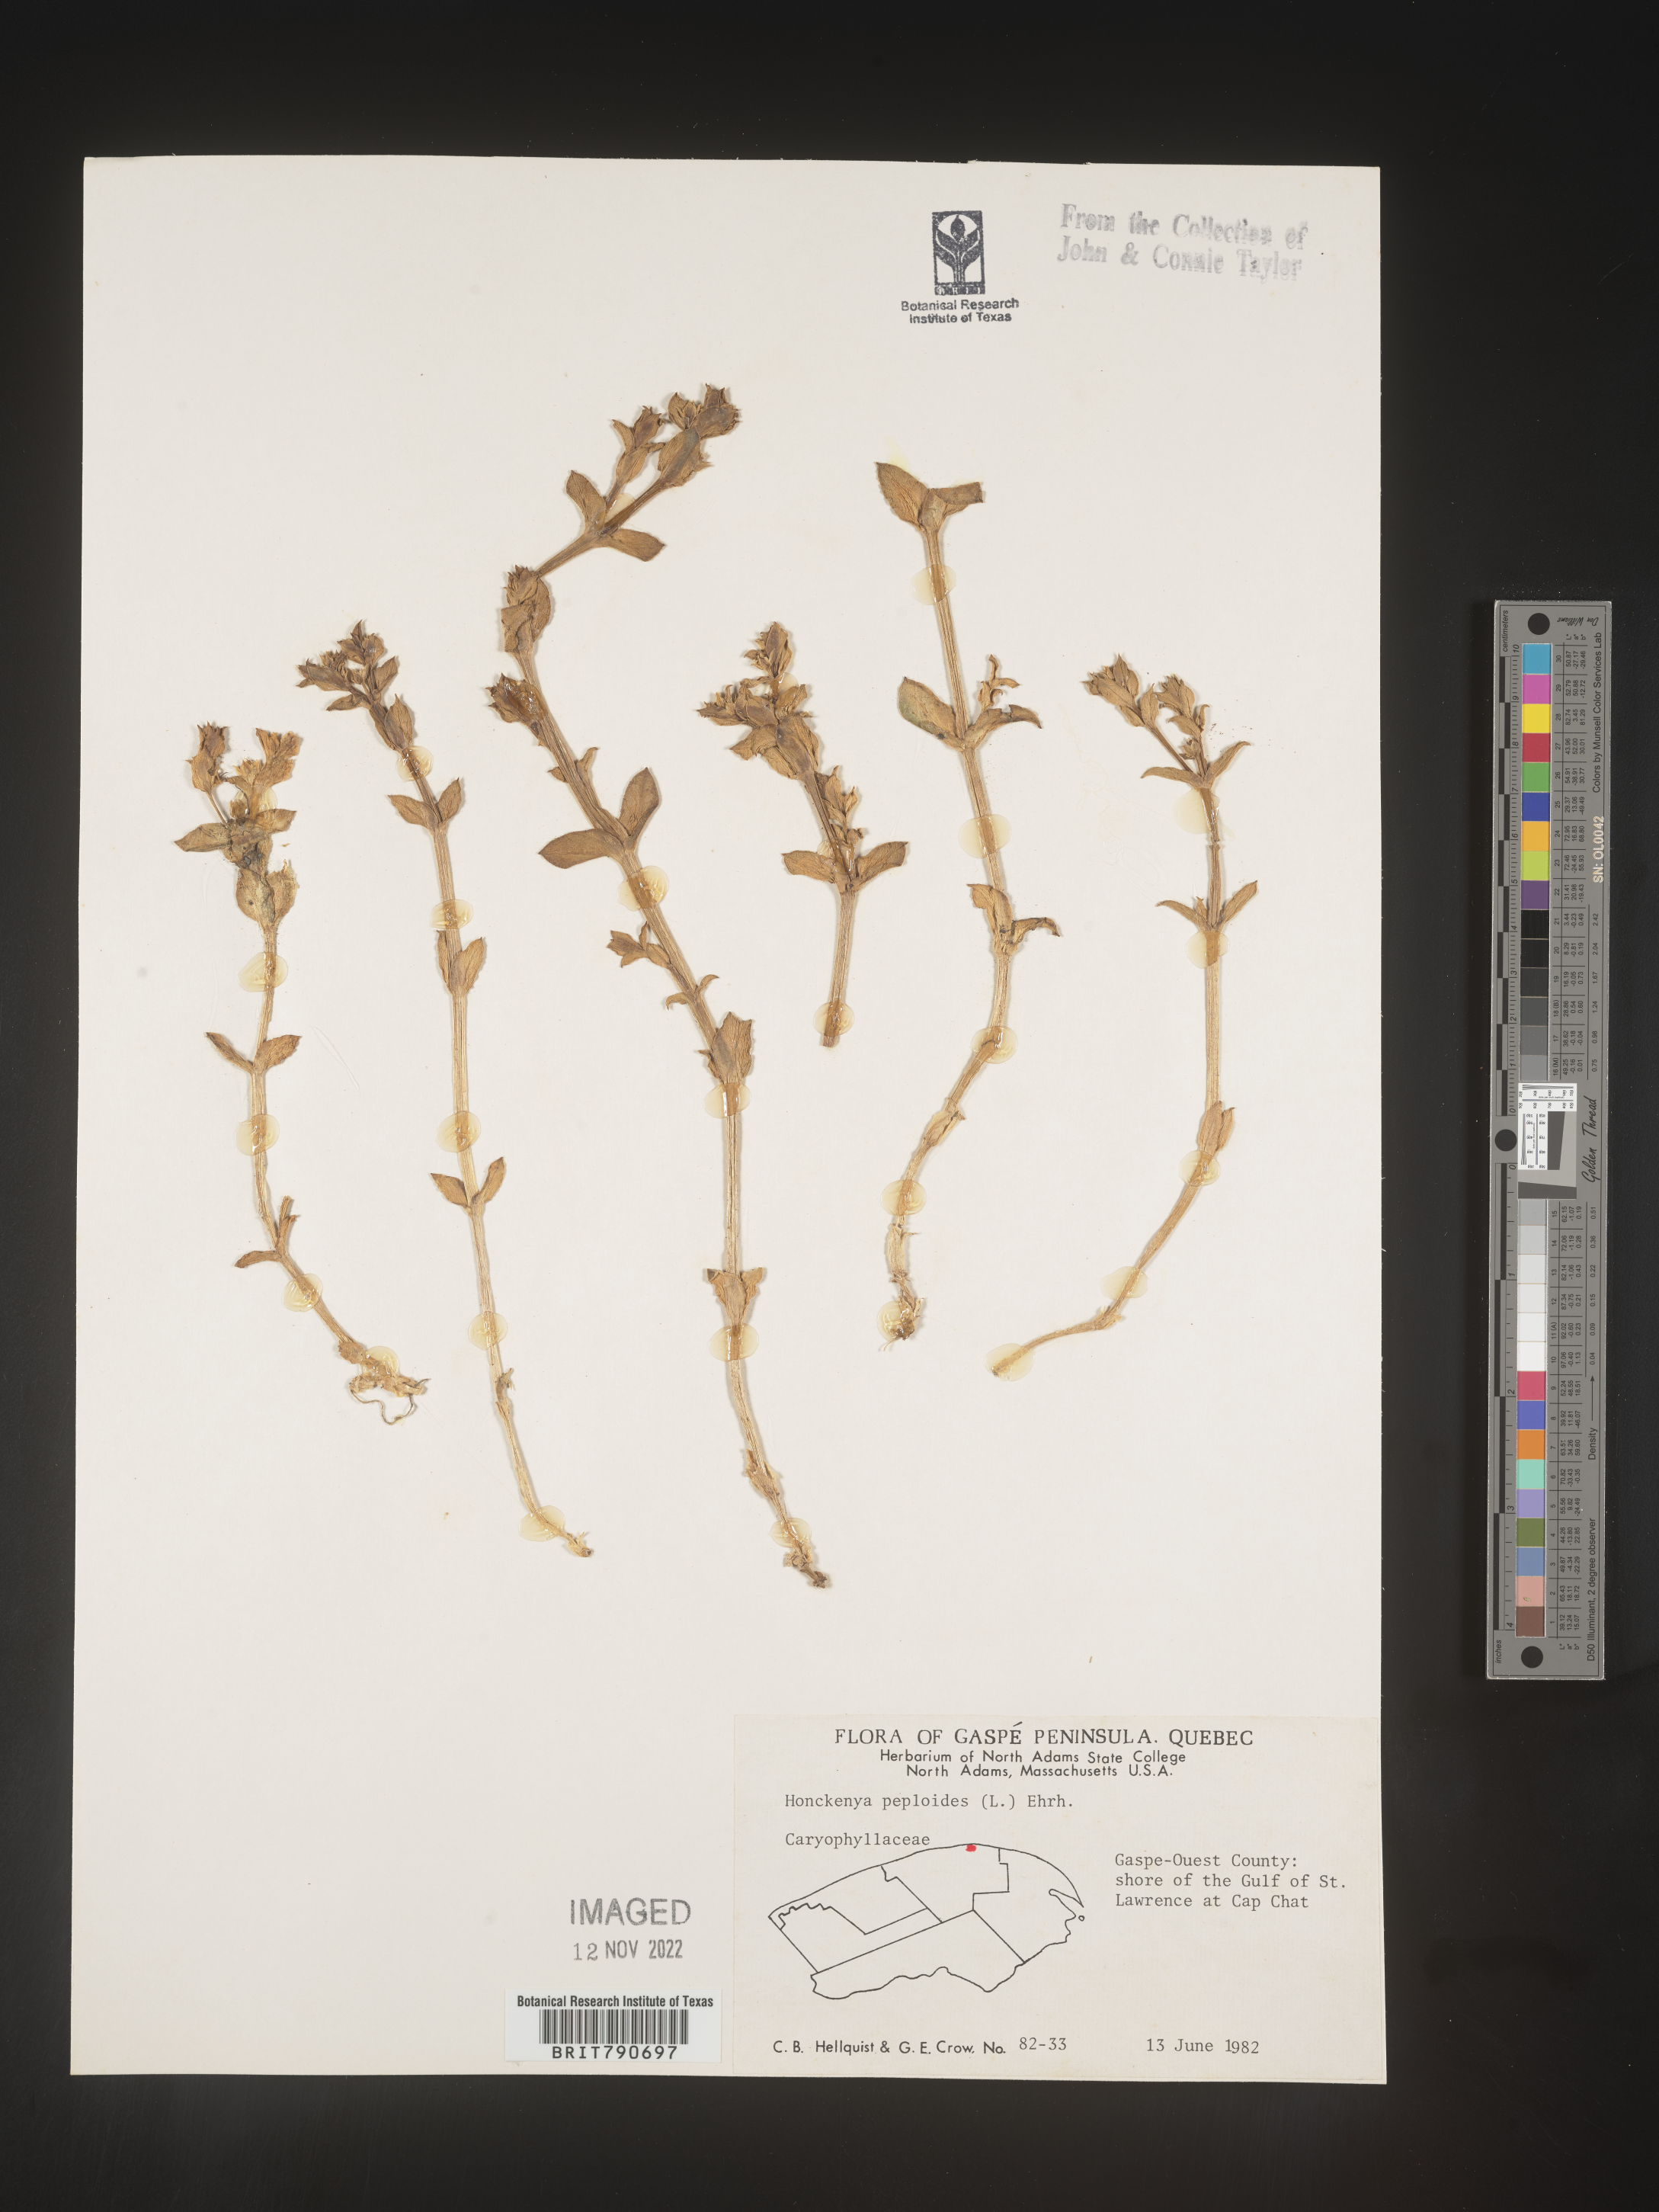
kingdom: Plantae
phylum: Tracheophyta
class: Magnoliopsida
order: Malvales
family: Malvaceae
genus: Clappertonia
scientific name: Clappertonia
